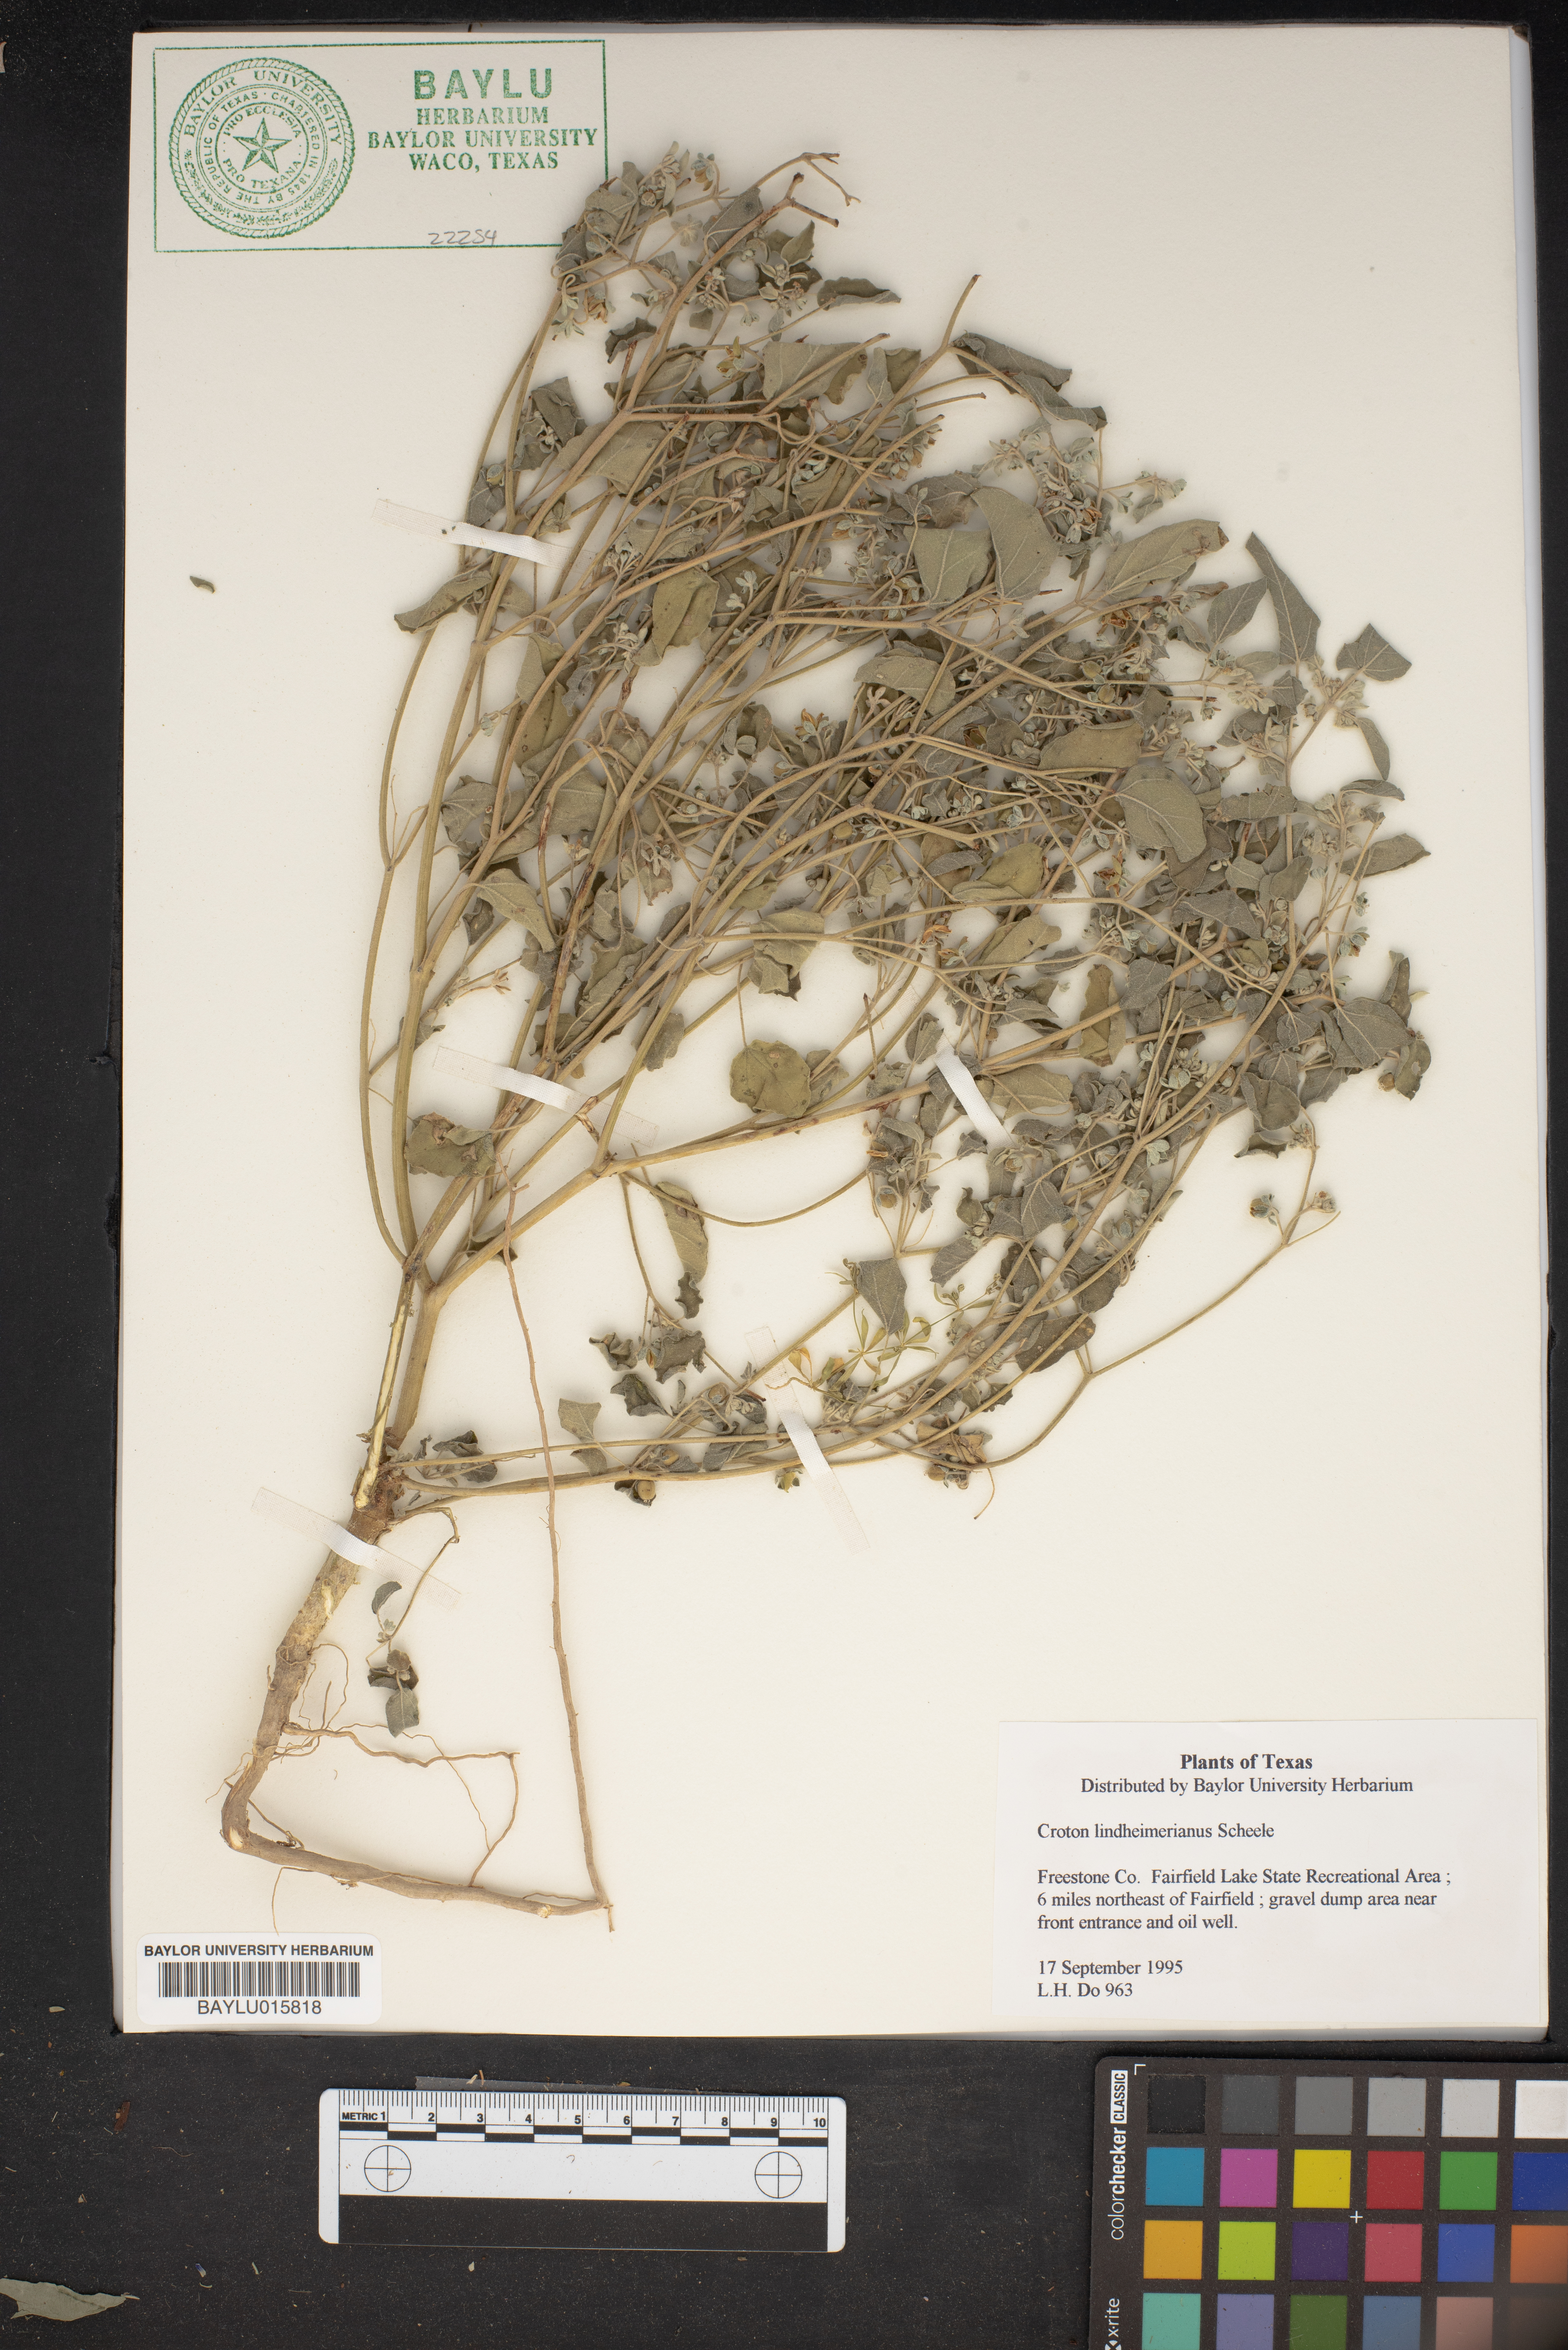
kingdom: Plantae
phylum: Tracheophyta
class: Magnoliopsida
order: Malpighiales
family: Euphorbiaceae
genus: Croton
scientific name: Croton lindheimerianus
